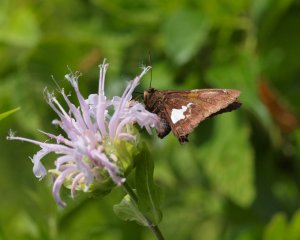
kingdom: Animalia
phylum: Arthropoda
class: Insecta
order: Lepidoptera
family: Hesperiidae
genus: Epargyreus
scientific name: Epargyreus clarus
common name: Silver-spotted Skipper
